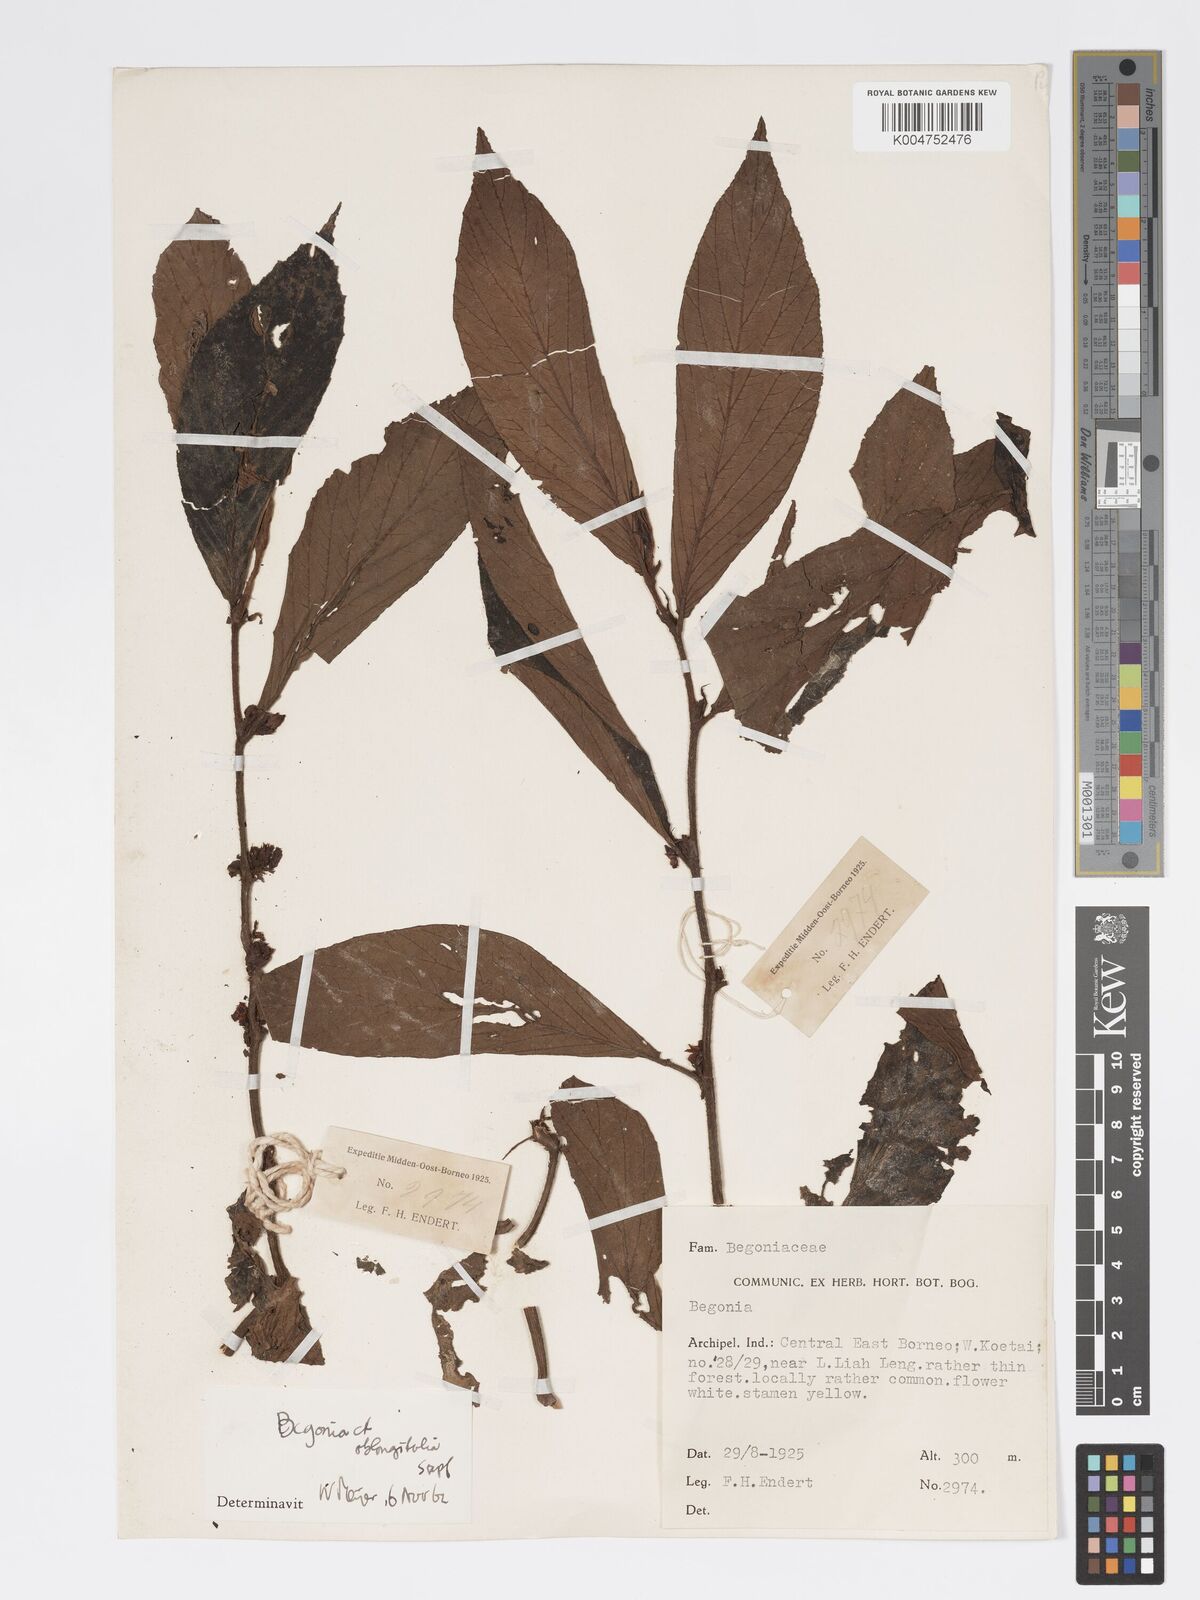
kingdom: Plantae
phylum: Tracheophyta
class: Magnoliopsida
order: Cucurbitales
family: Begoniaceae
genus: Begonia
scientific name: Begonia oblongifolia
